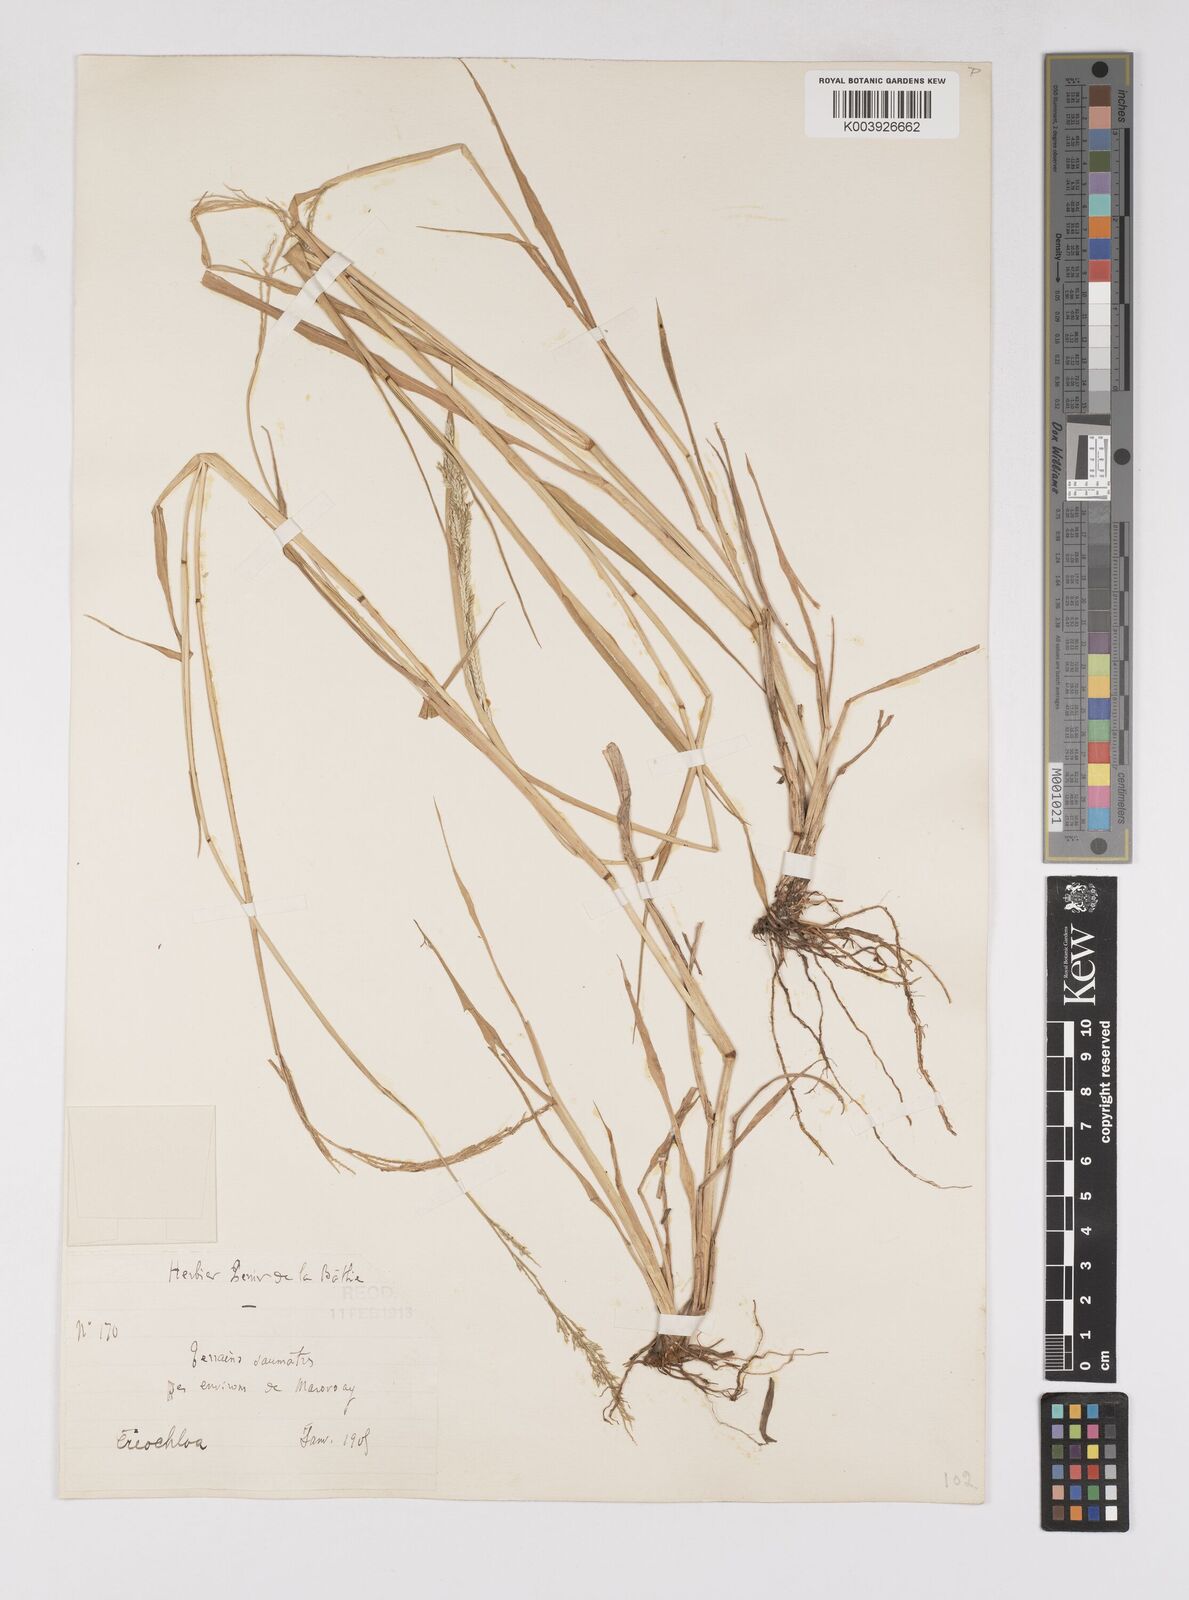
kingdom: Plantae
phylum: Tracheophyta
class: Liliopsida
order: Poales
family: Poaceae
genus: Eriochloa
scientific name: Eriochloa parvispiculata
